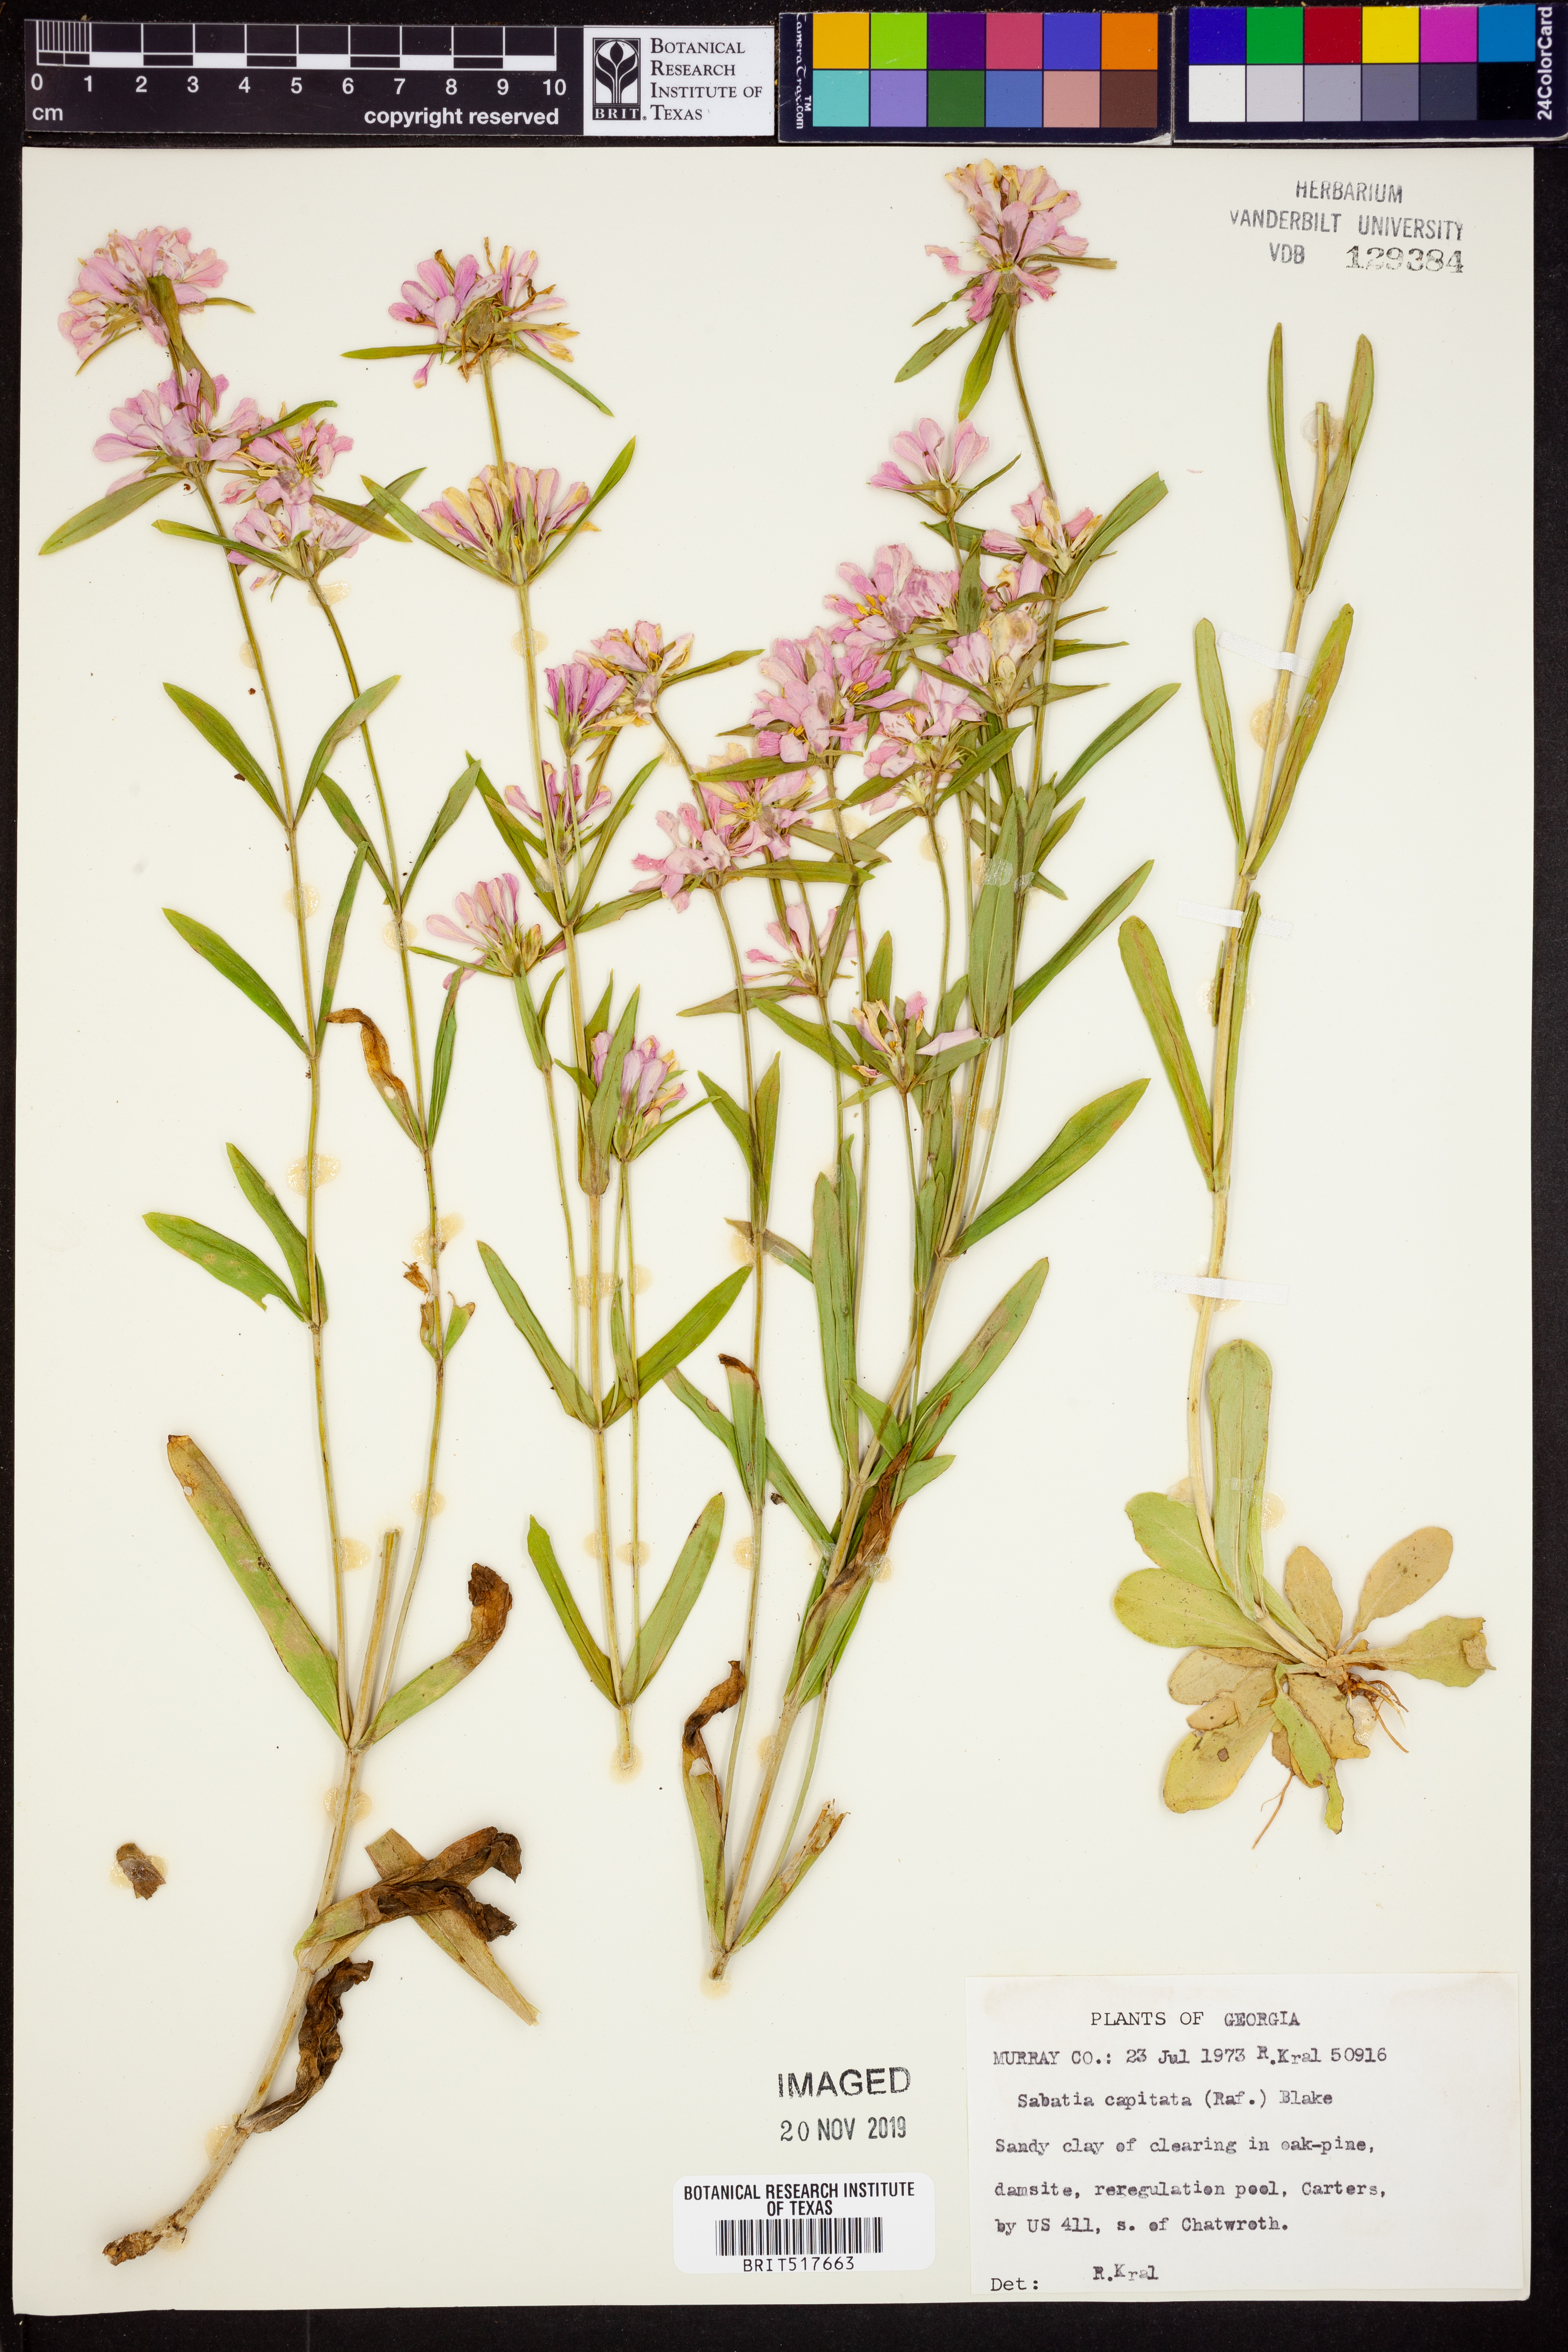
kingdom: Plantae
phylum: Tracheophyta
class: Magnoliopsida
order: Gentianales
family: Gentianaceae
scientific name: Gentianaceae
